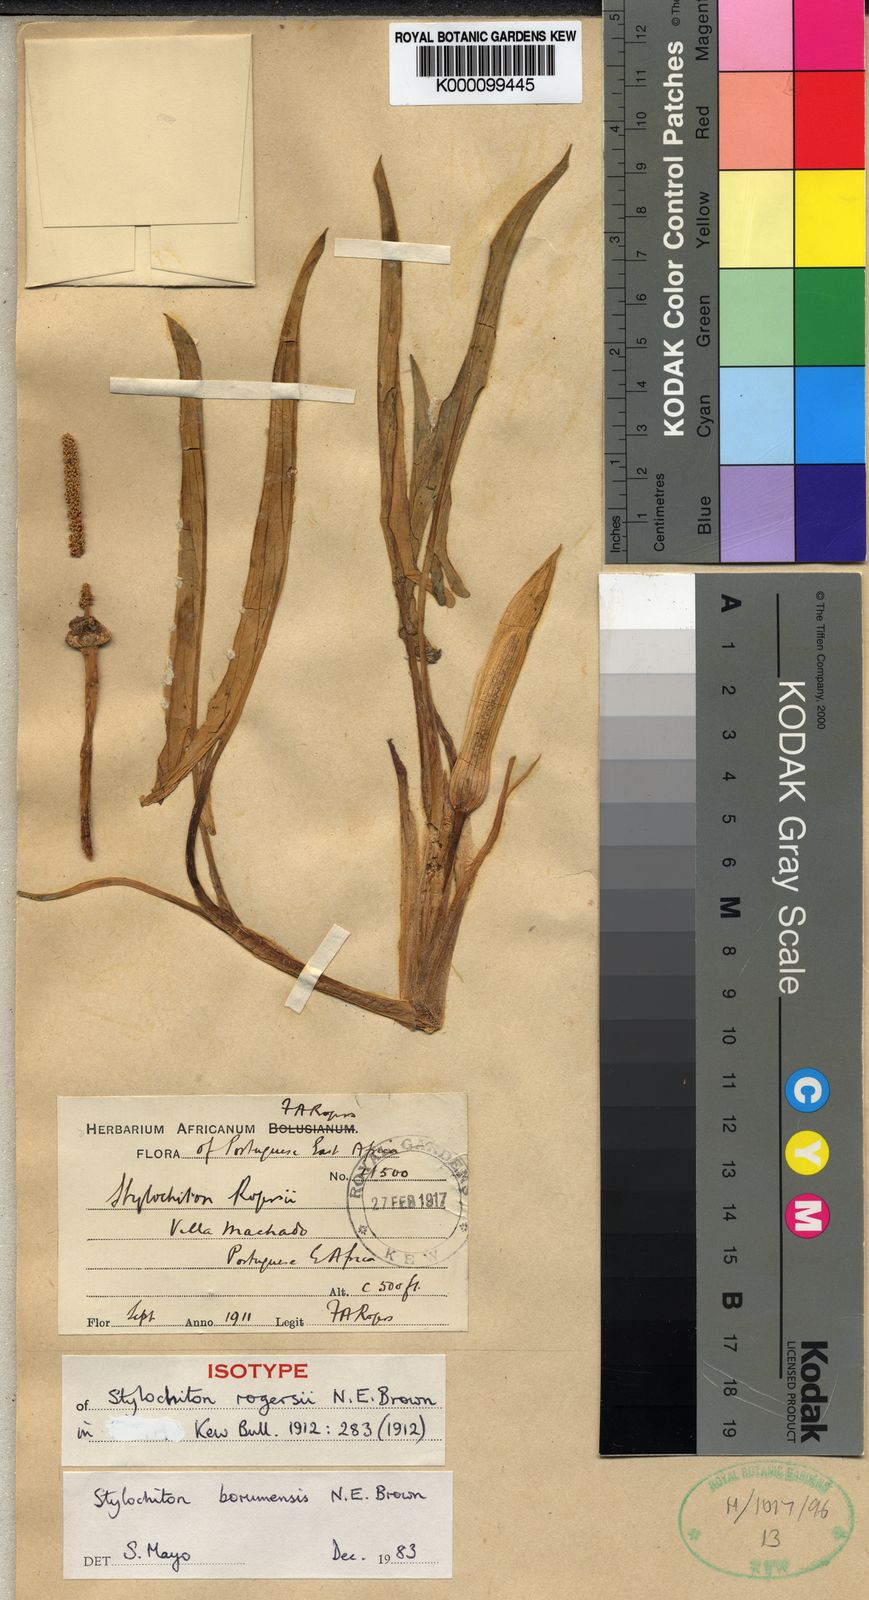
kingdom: Plantae
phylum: Tracheophyta
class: Liliopsida
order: Alismatales
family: Araceae
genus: Stylochaeton
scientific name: Stylochaeton
